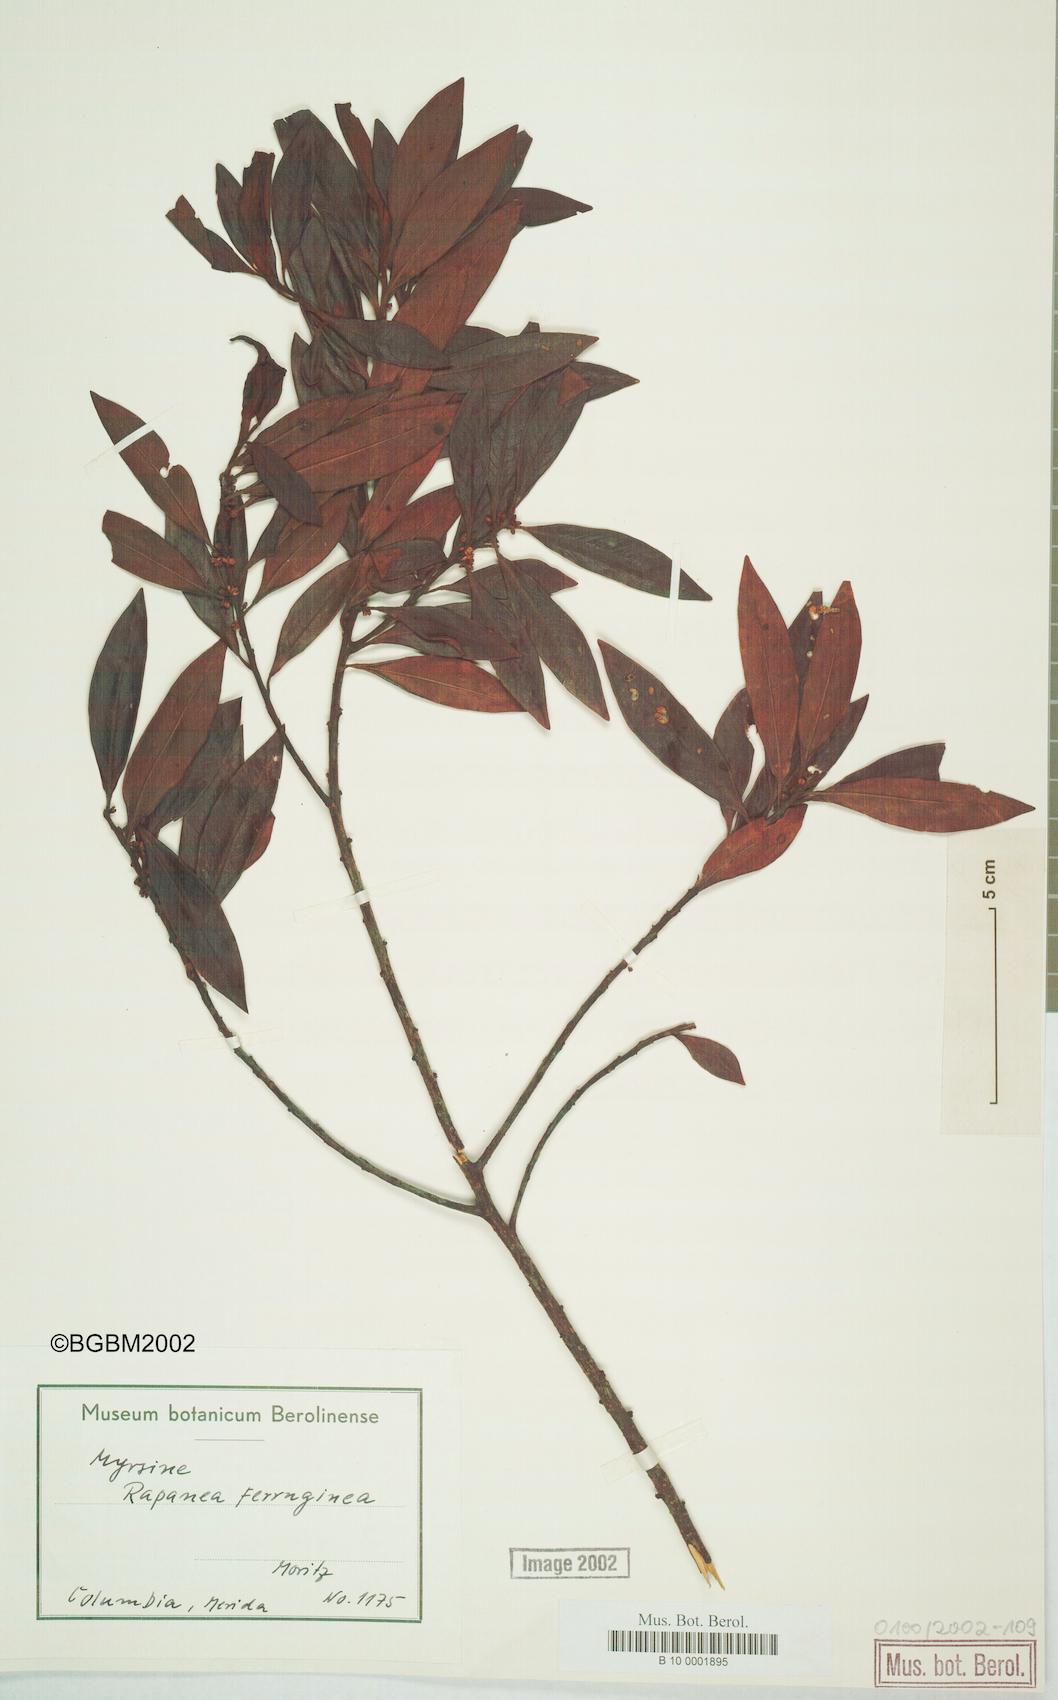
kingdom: Plantae
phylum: Tracheophyta
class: Magnoliopsida
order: Ericales
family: Primulaceae
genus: Myrsine
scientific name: Myrsine coriacea
